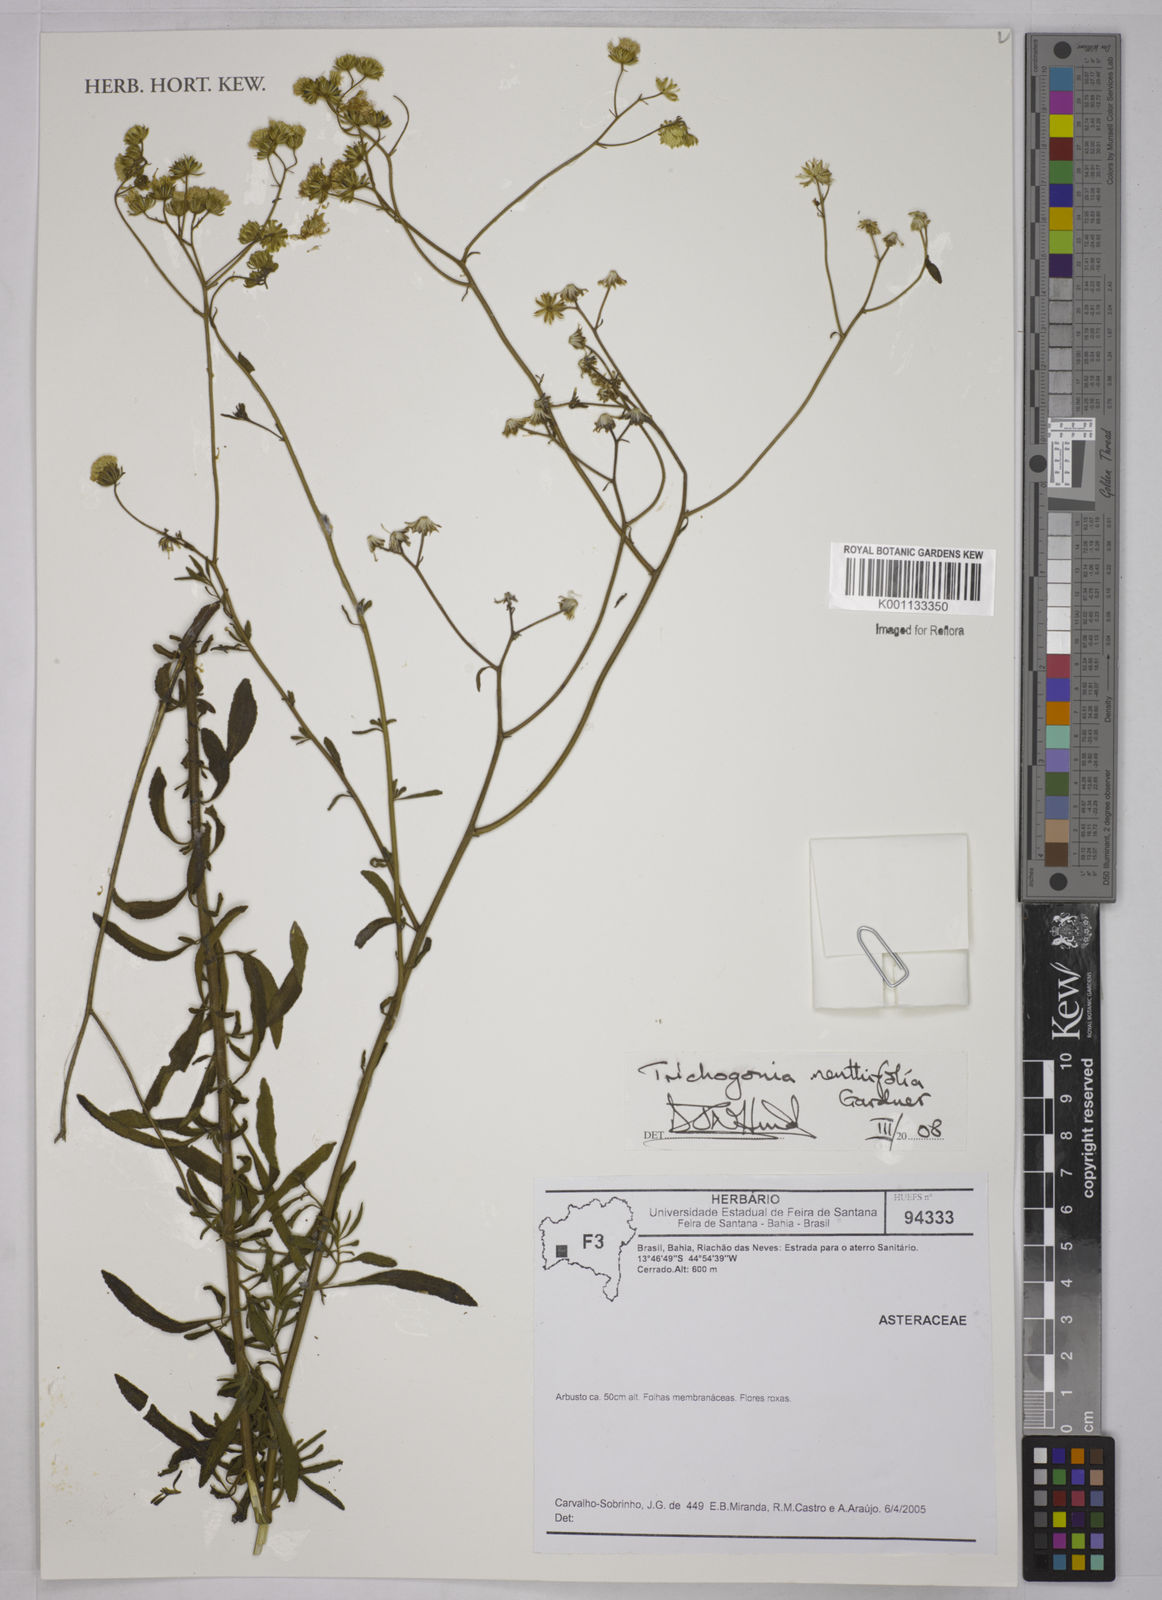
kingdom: Plantae
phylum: Tracheophyta
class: Magnoliopsida
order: Asterales
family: Asteraceae
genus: Trichogonia
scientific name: Trichogonia menthifolia
